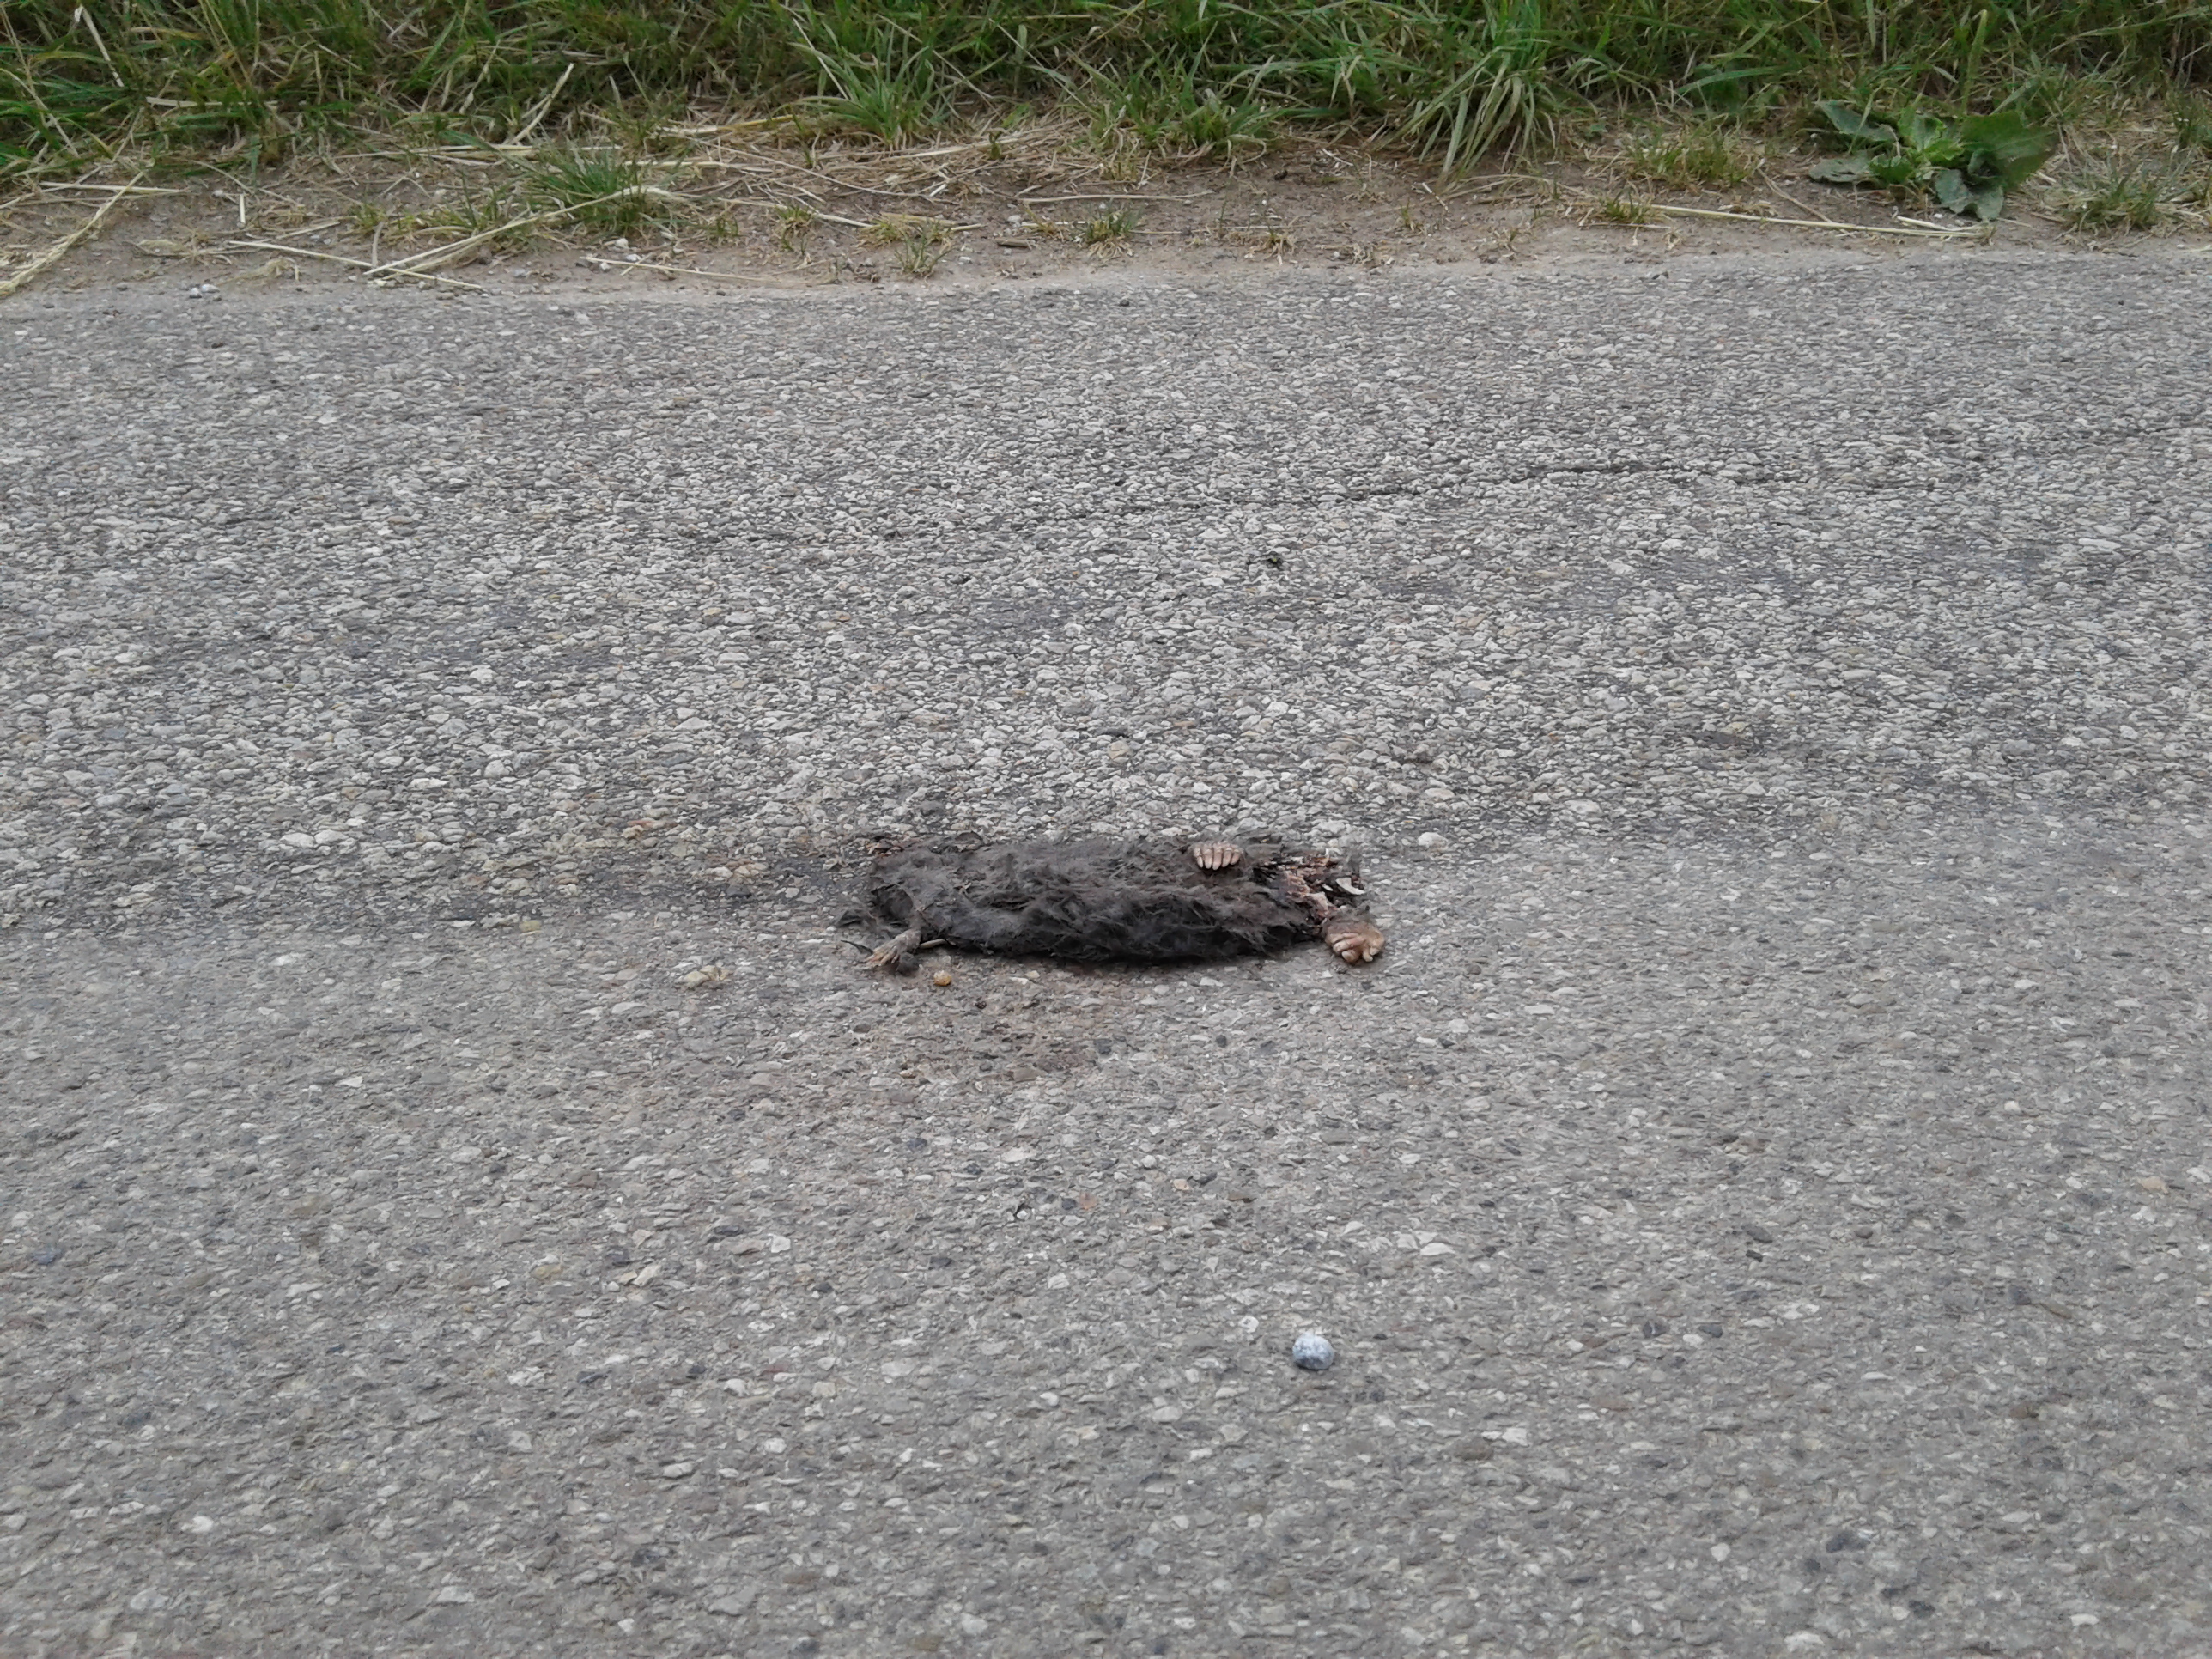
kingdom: Animalia
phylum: Chordata
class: Mammalia
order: Soricomorpha
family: Talpidae
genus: Talpa
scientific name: Talpa europaea
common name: European mole
